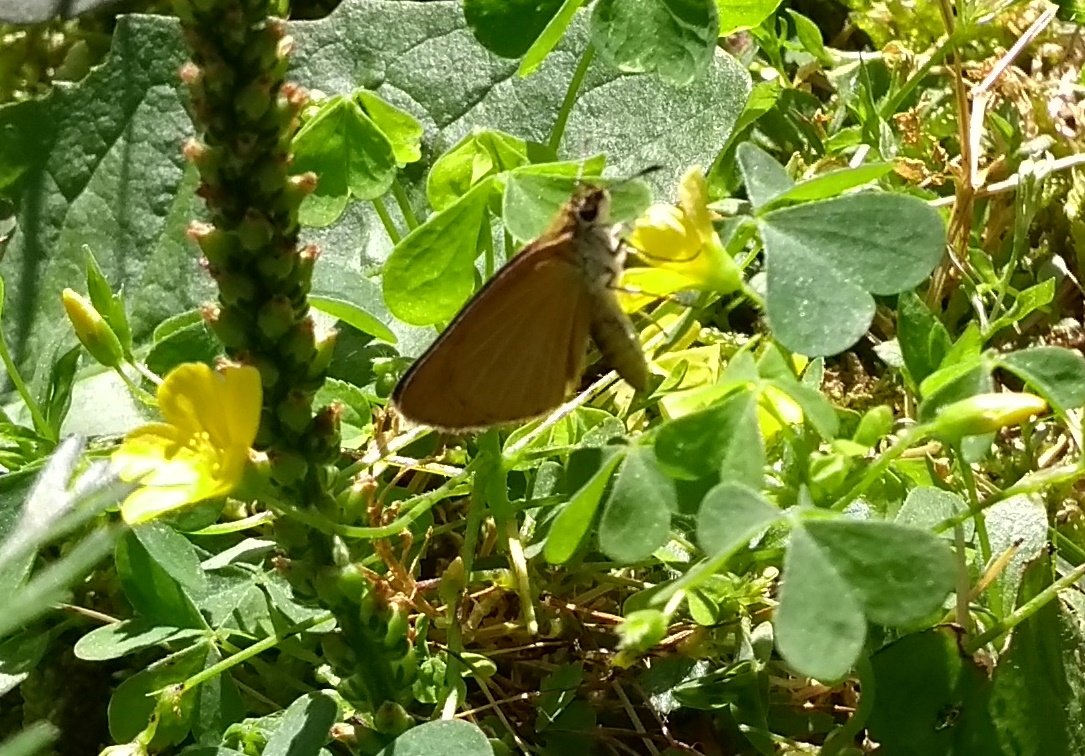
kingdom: Animalia
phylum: Arthropoda
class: Insecta
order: Lepidoptera
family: Hesperiidae
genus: Ancyloxypha
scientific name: Ancyloxypha numitor
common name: Least Skipper
